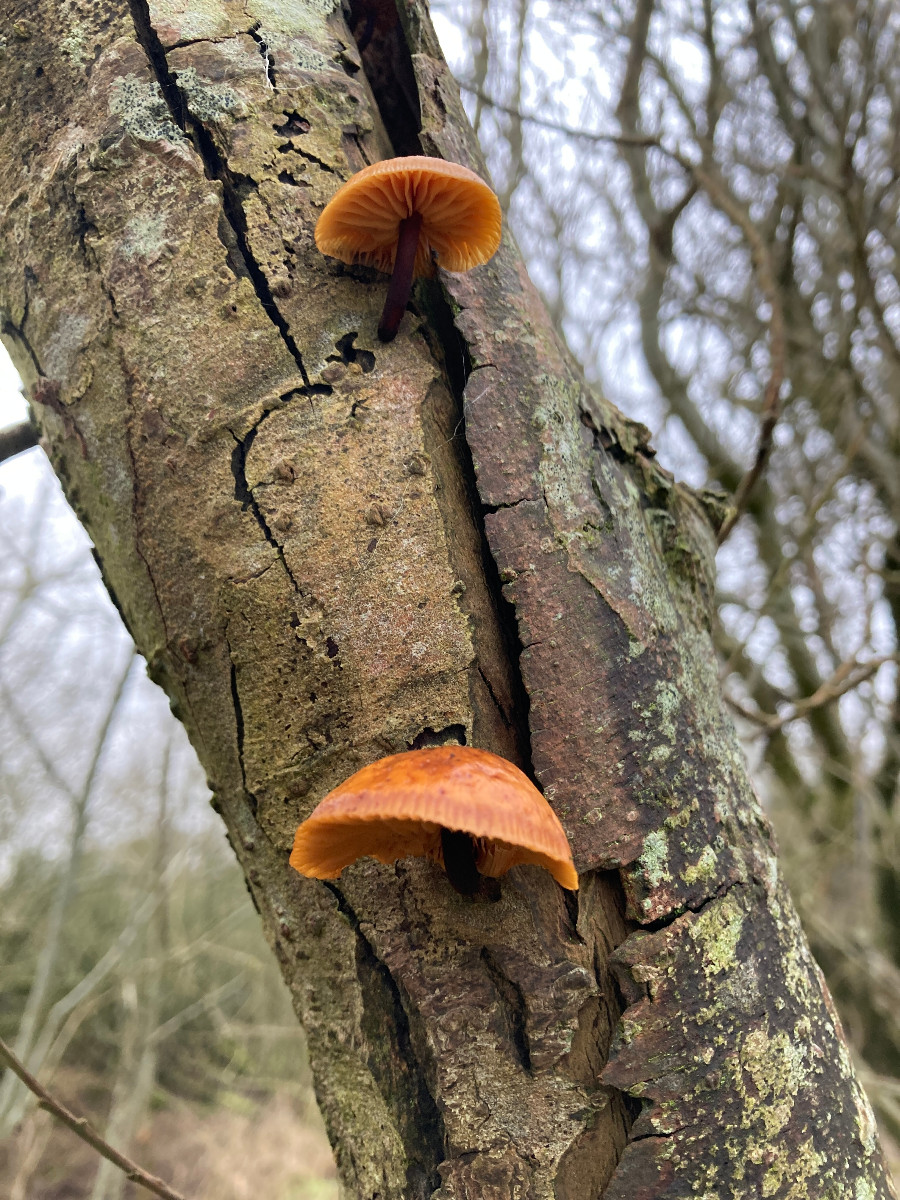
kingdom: Fungi
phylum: Basidiomycota
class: Agaricomycetes
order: Agaricales
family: Physalacriaceae
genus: Flammulina
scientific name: Flammulina
